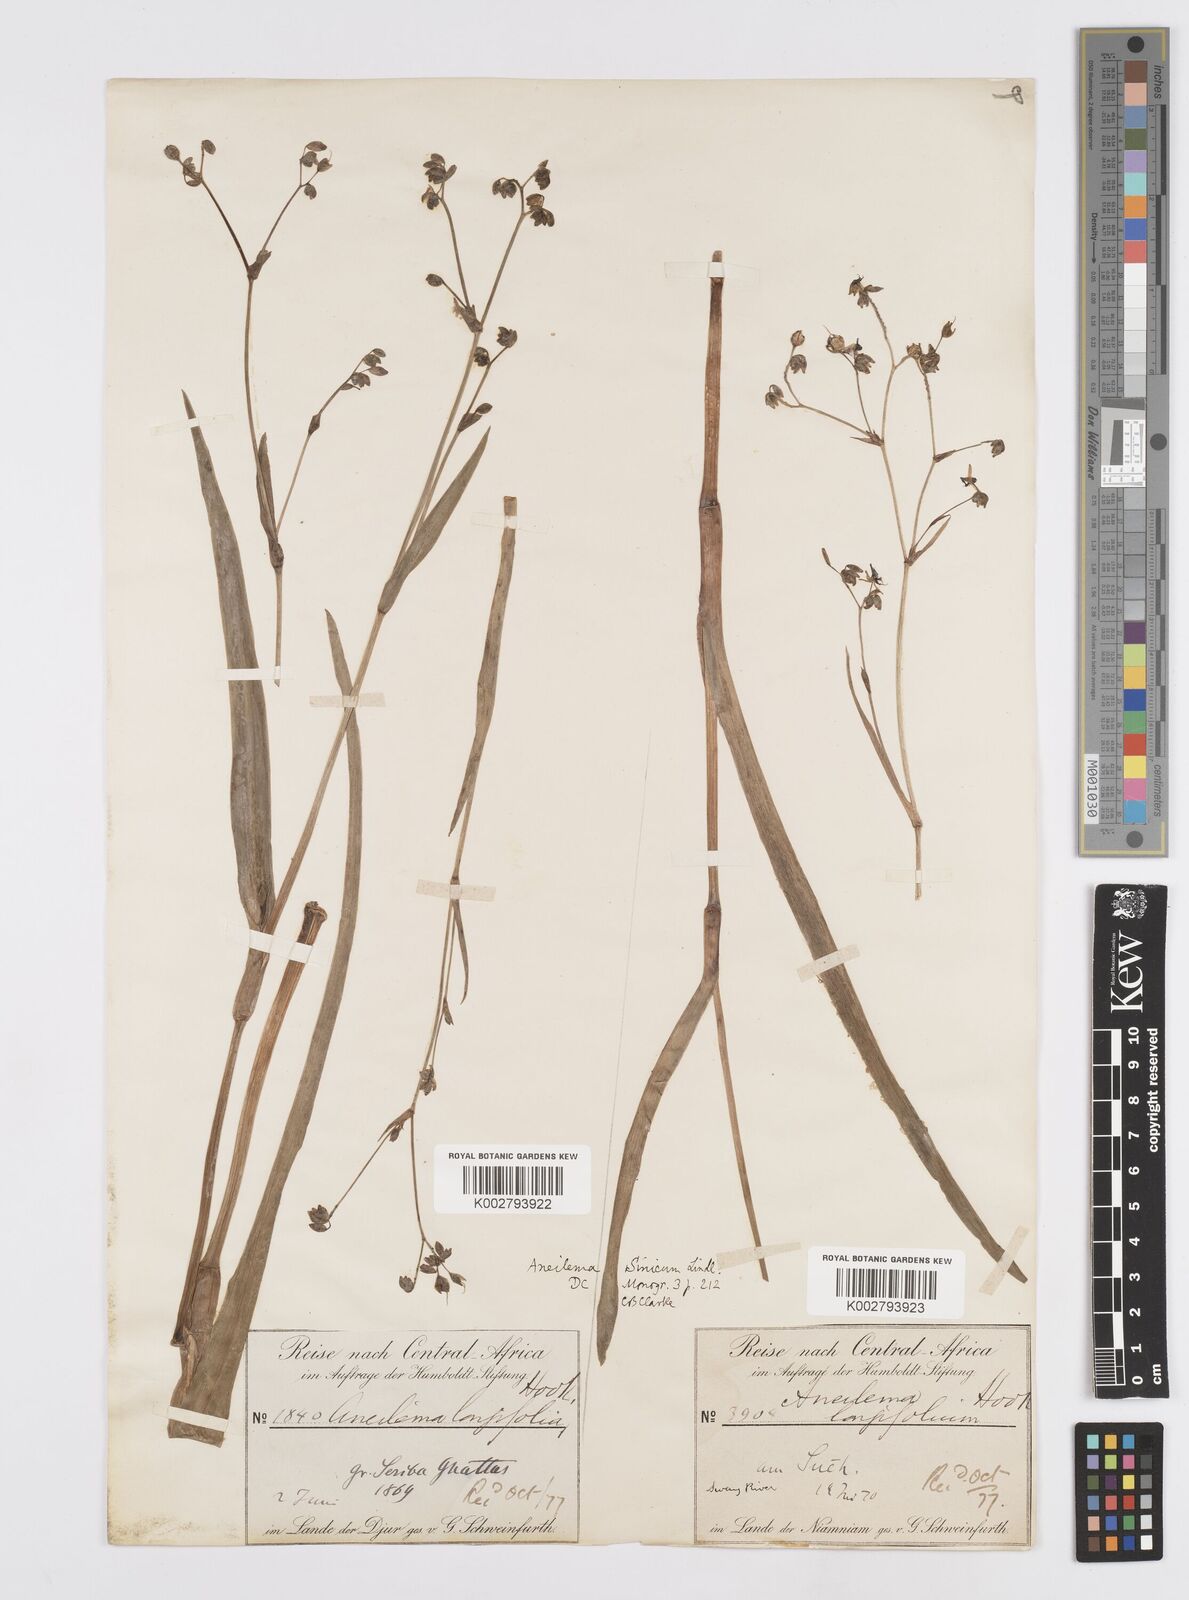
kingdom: Plantae
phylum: Tracheophyta
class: Liliopsida
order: Commelinales
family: Commelinaceae
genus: Murdannia
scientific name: Murdannia simplex
